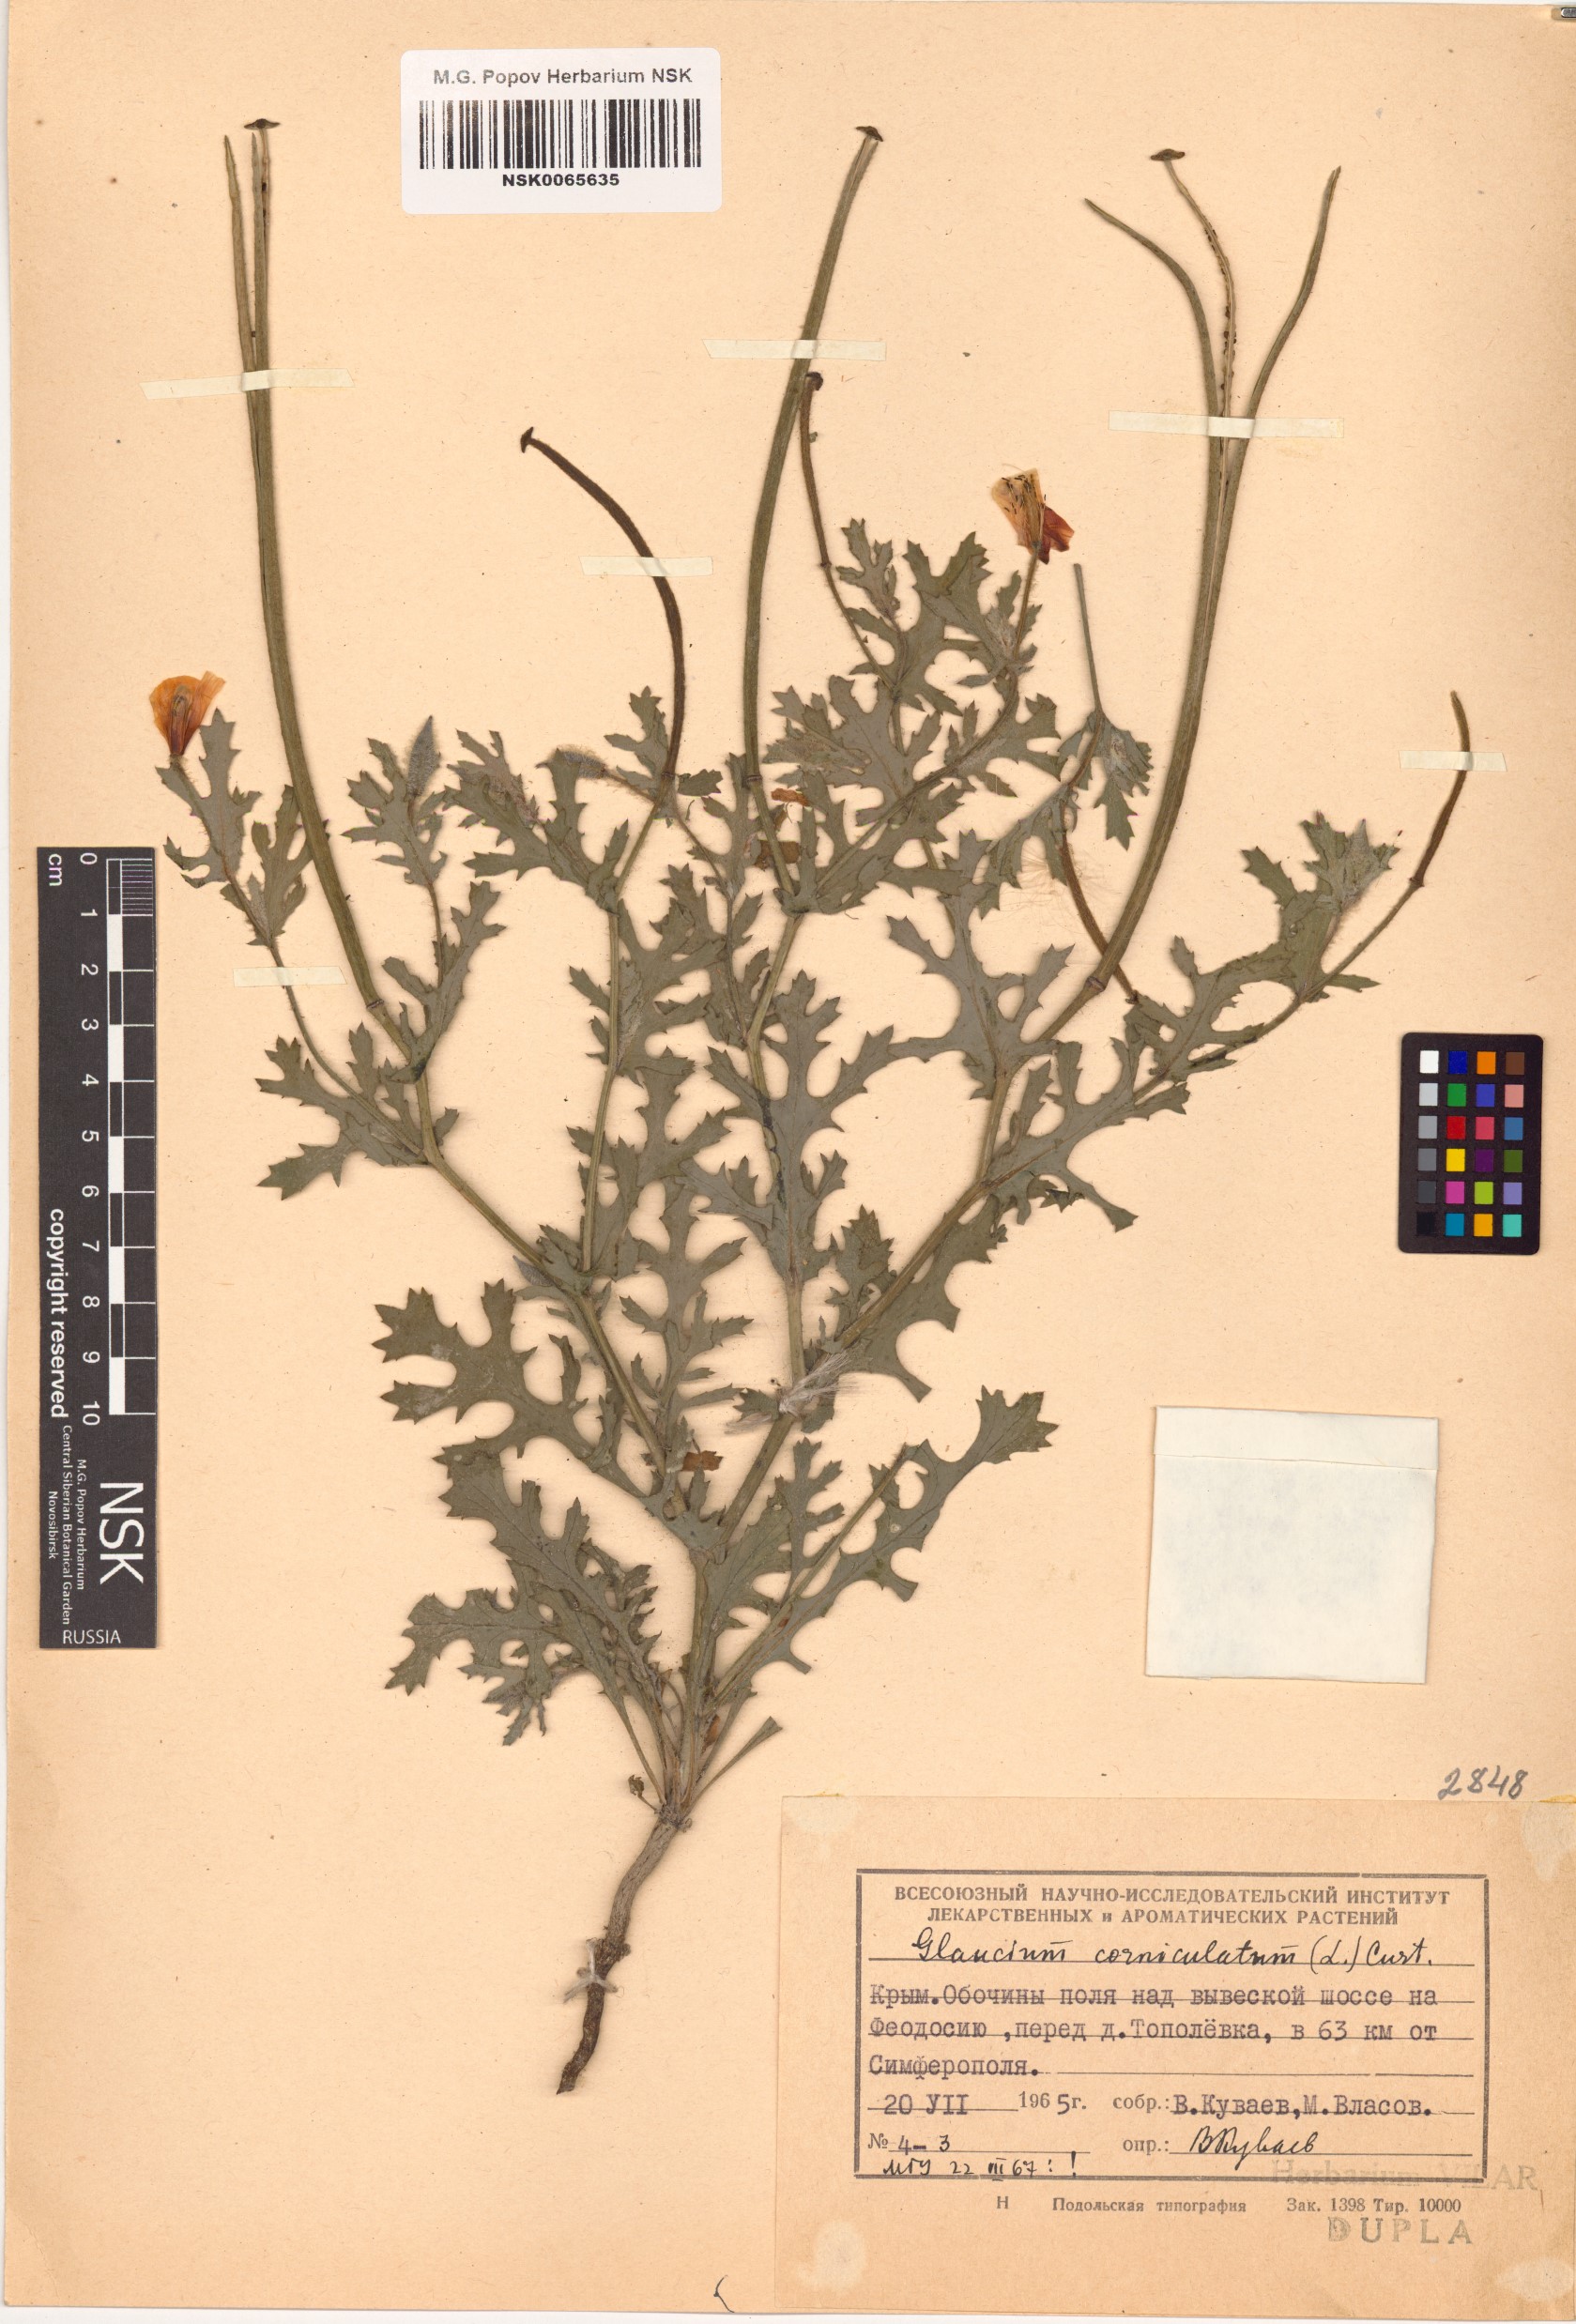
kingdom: Plantae
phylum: Tracheophyta
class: Magnoliopsida
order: Ranunculales
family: Papaveraceae
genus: Glaucium
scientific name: Glaucium corniculatum
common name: Red horned-poppy
